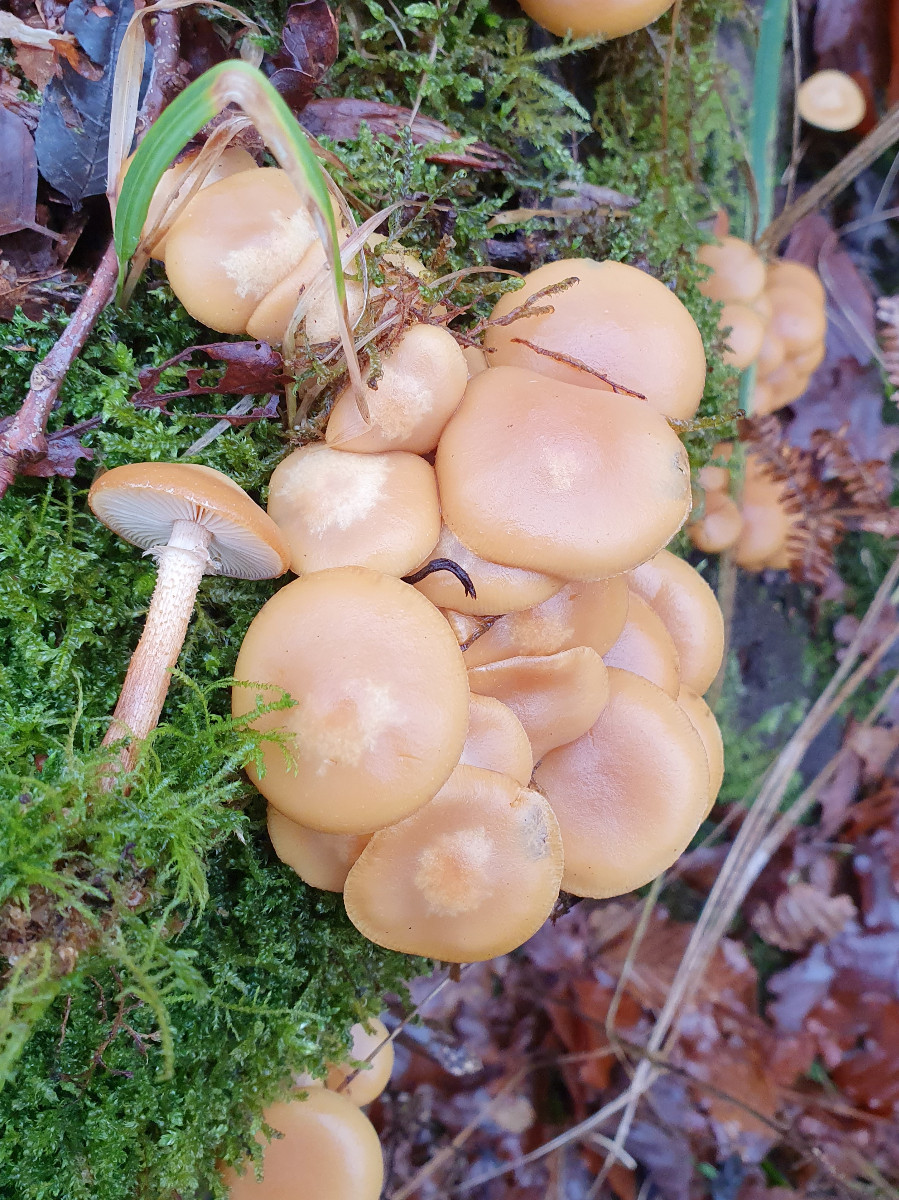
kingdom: Fungi
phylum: Basidiomycota
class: Agaricomycetes
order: Agaricales
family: Strophariaceae
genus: Kuehneromyces
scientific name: Kuehneromyces mutabilis
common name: foranderlig skælhat
